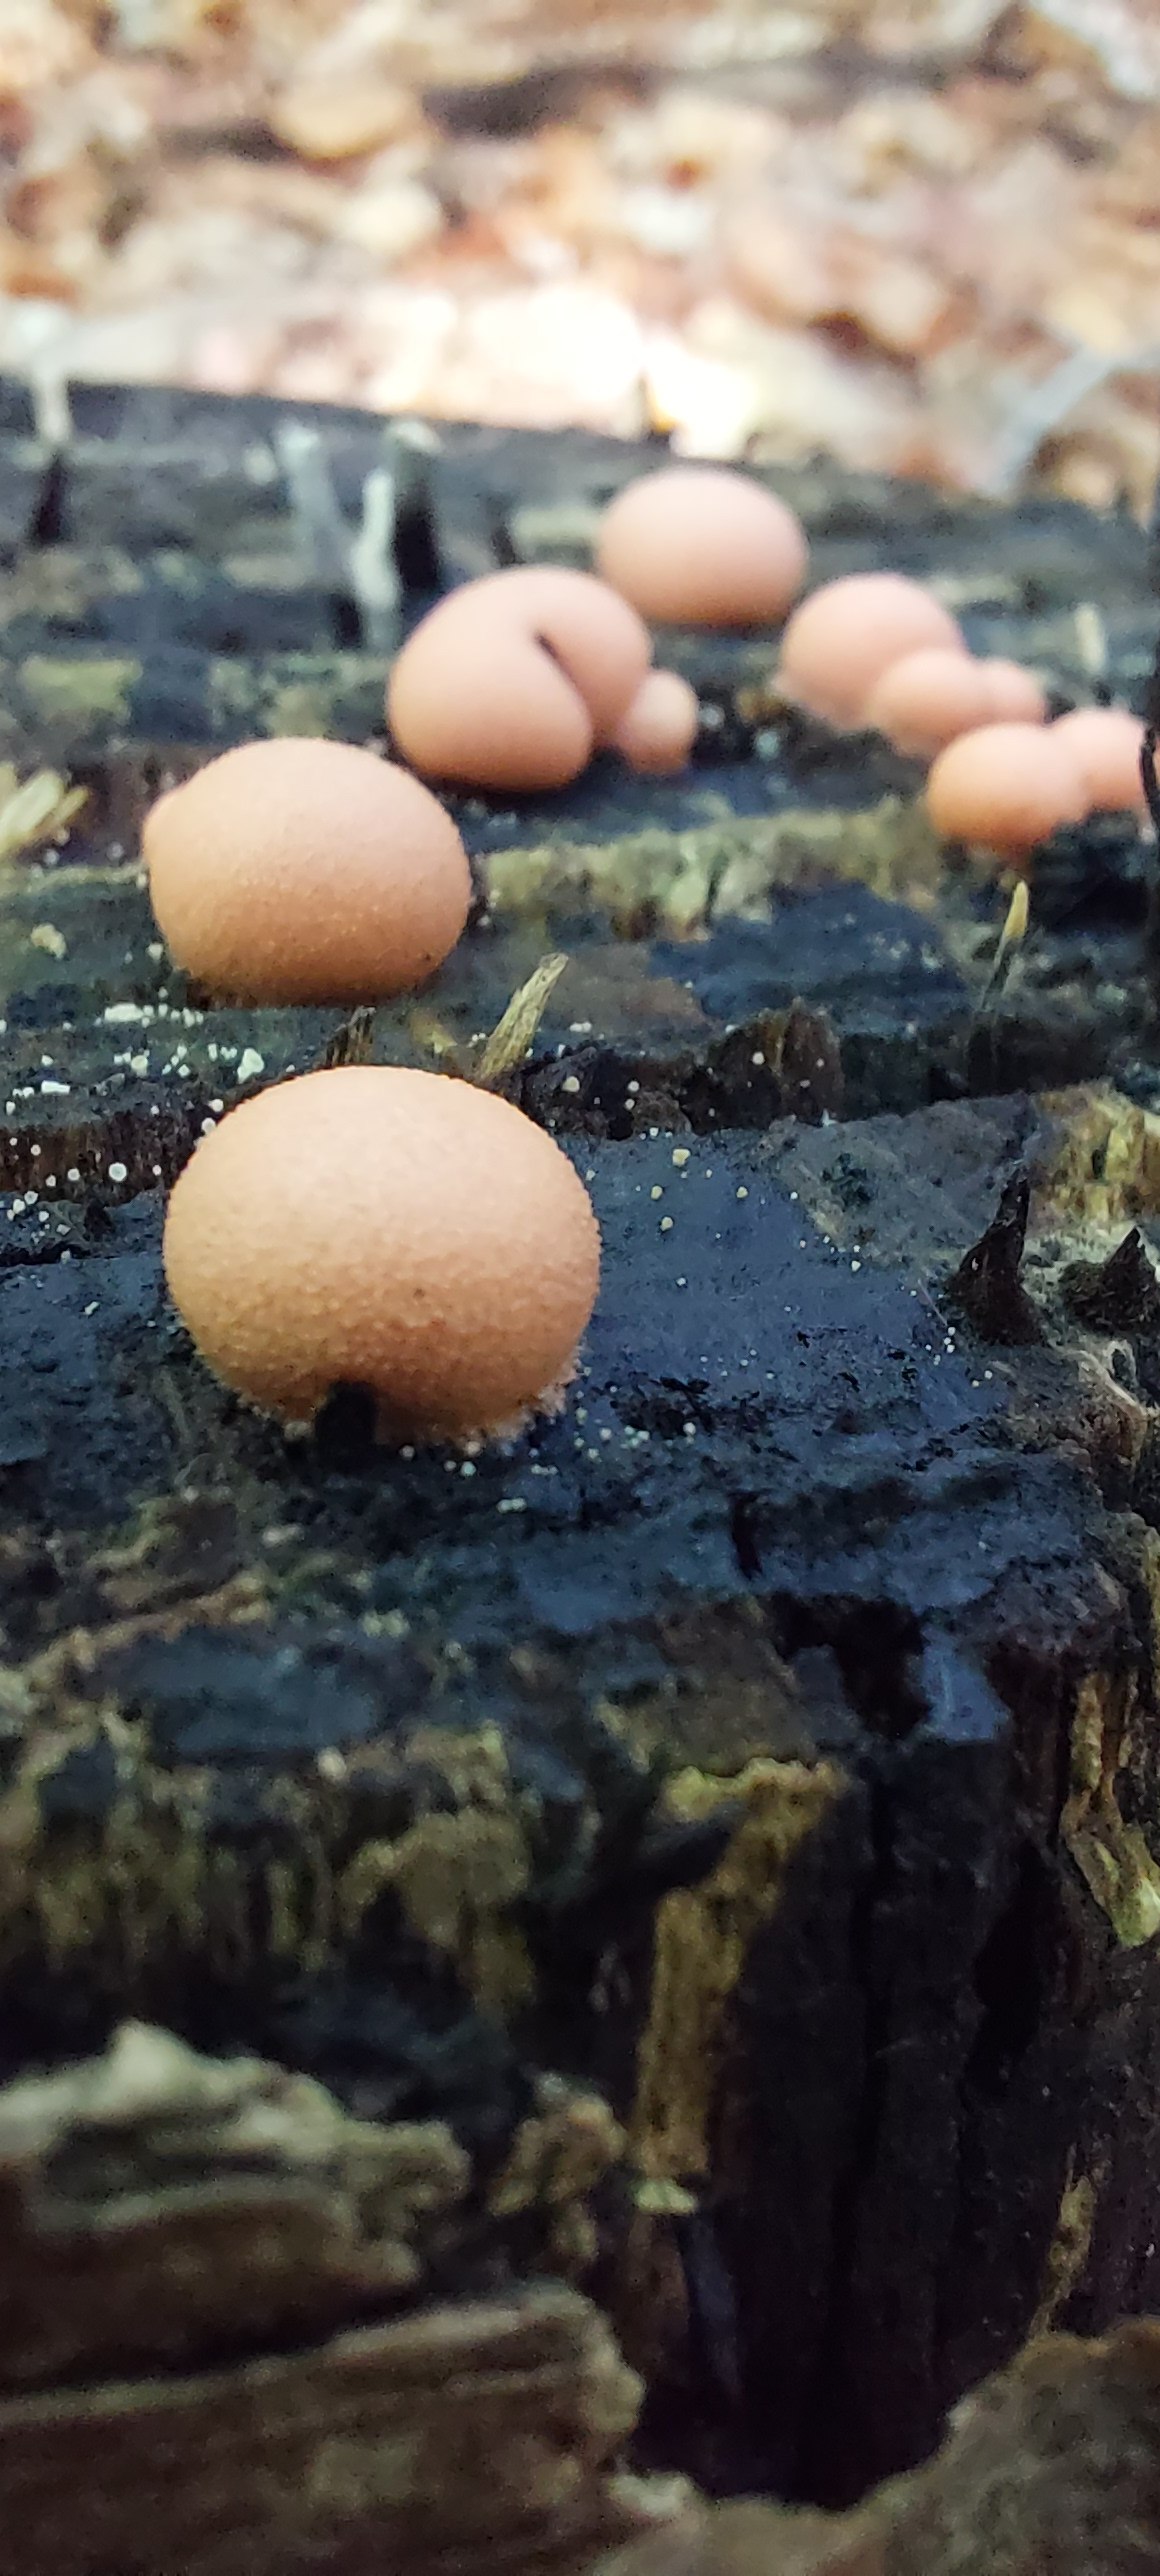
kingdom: Protozoa
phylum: Mycetozoa
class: Myxomycetes
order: Cribrariales
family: Tubiferaceae
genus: Lycogala
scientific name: Lycogala epidendrum
